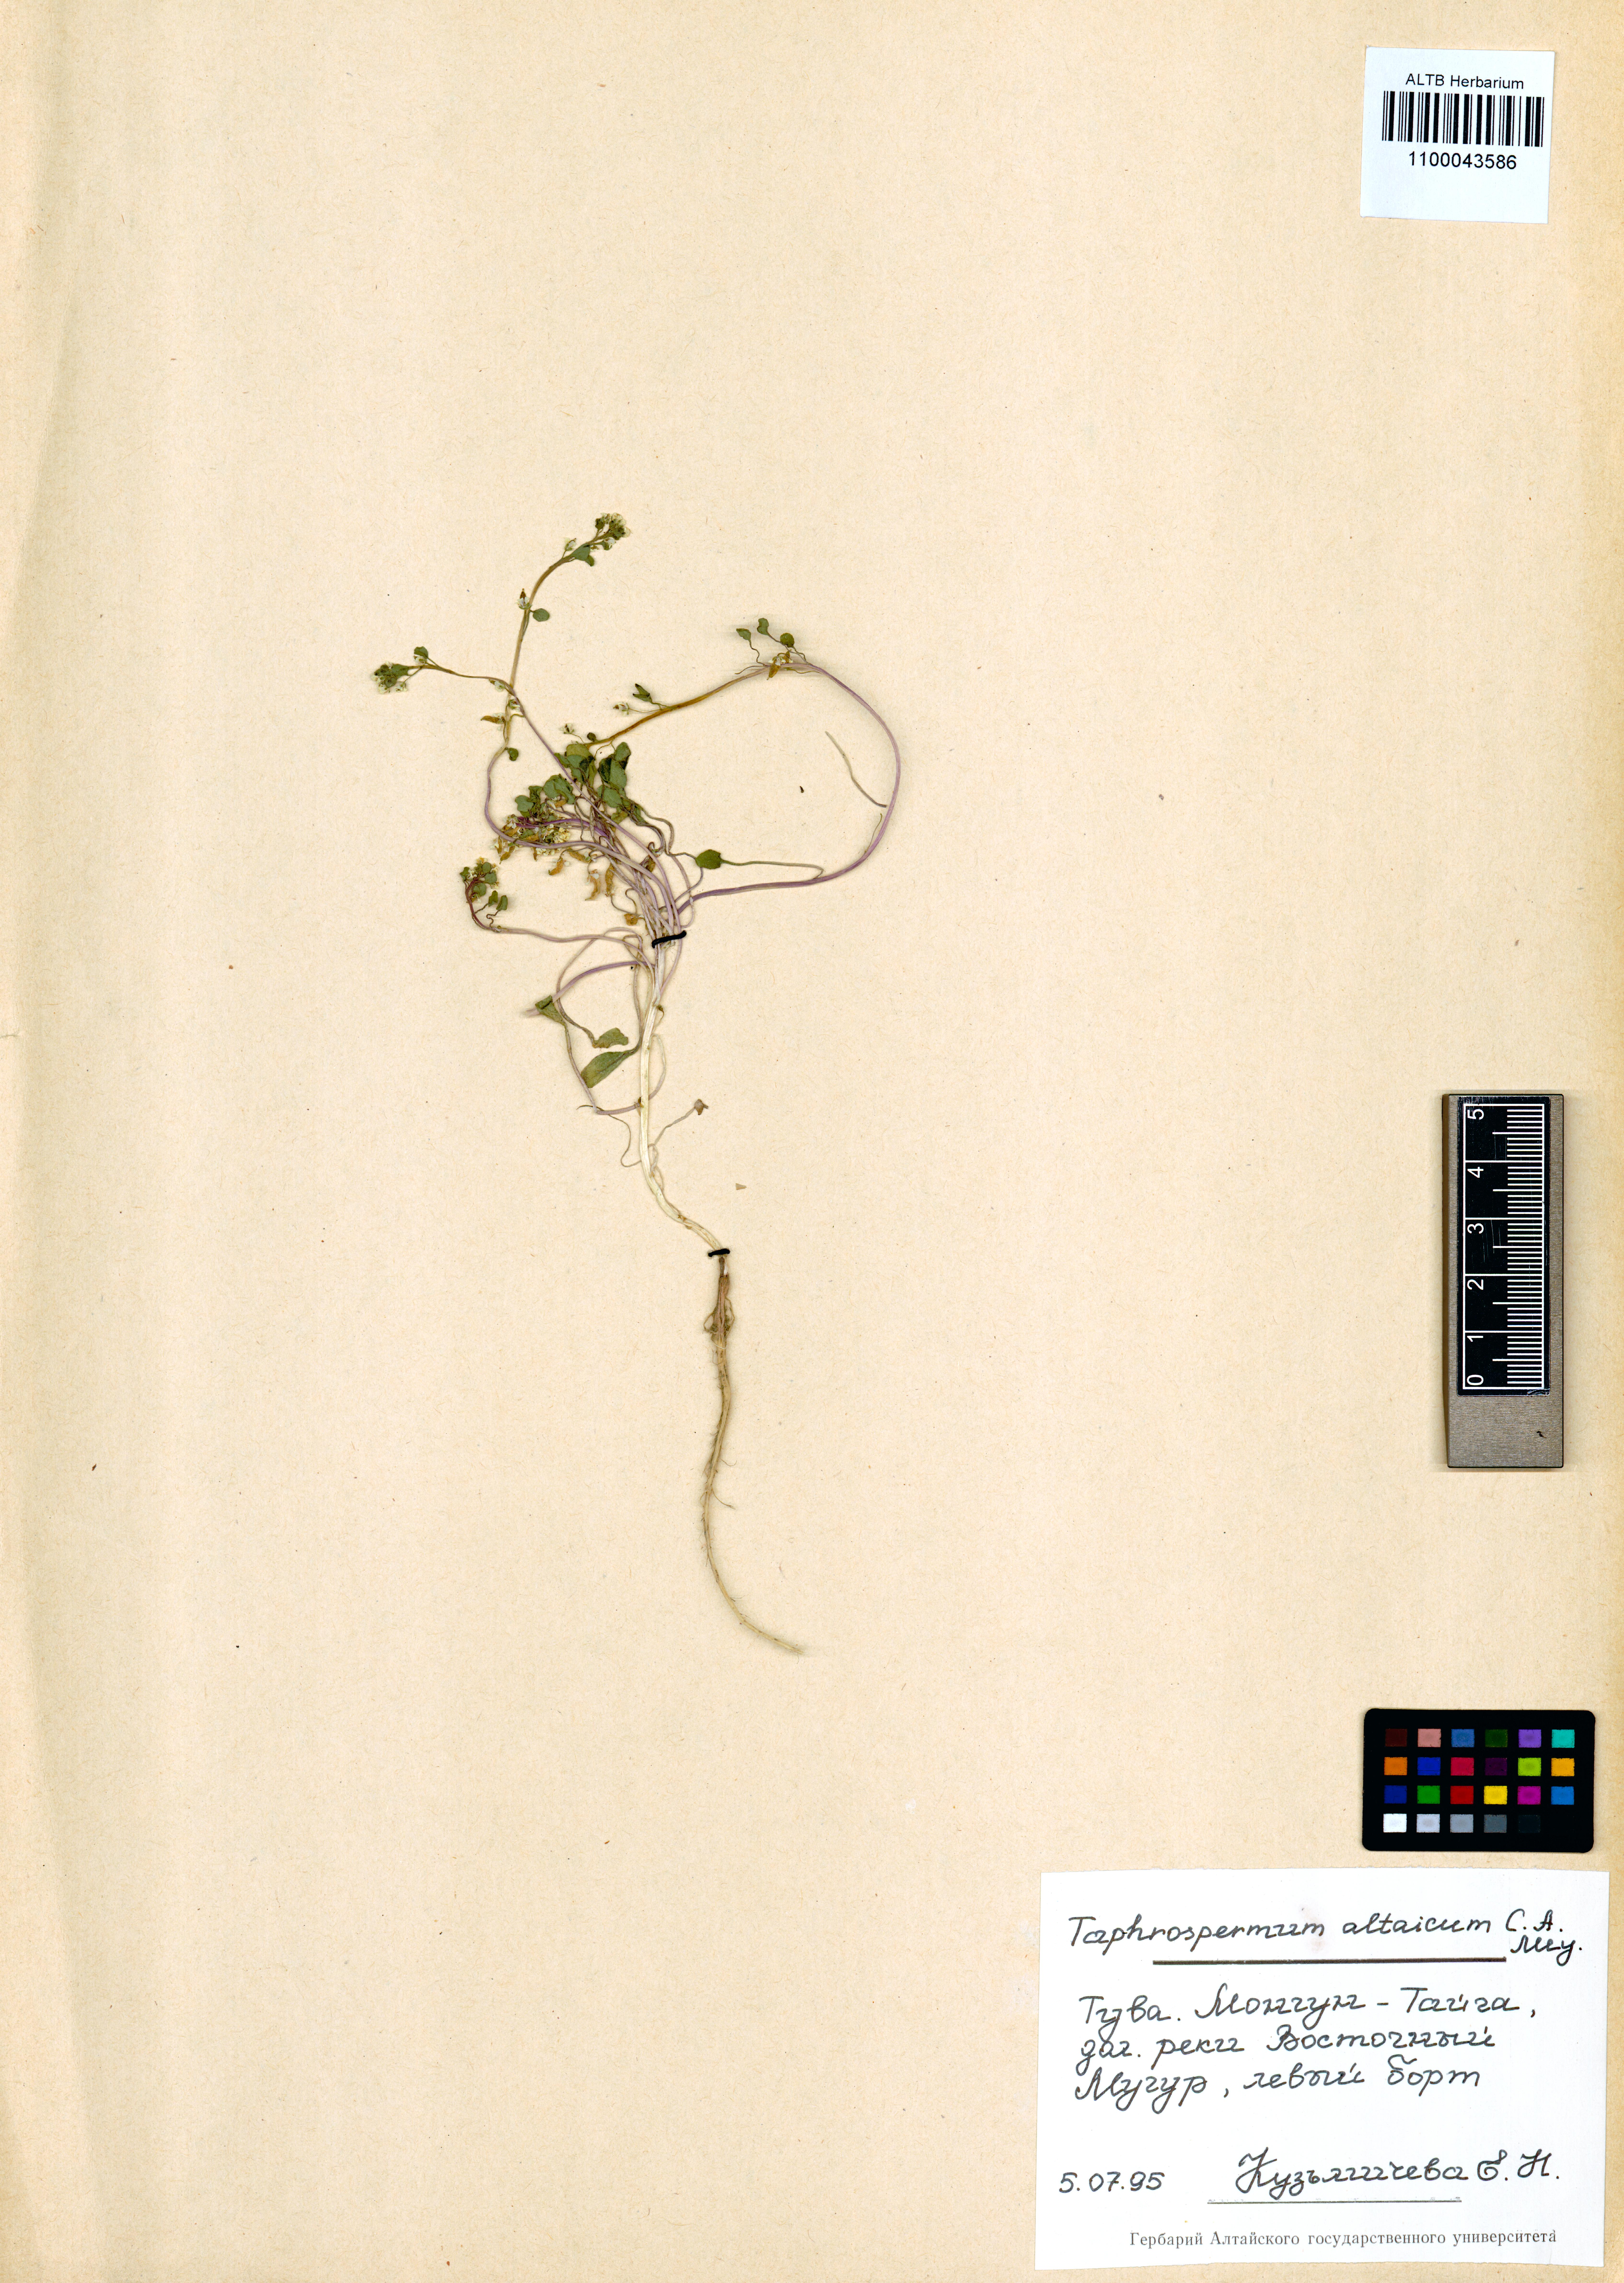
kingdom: Plantae
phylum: Tracheophyta
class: Magnoliopsida
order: Brassicales
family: Brassicaceae
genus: Eutrema
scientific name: Eutrema altaicum
